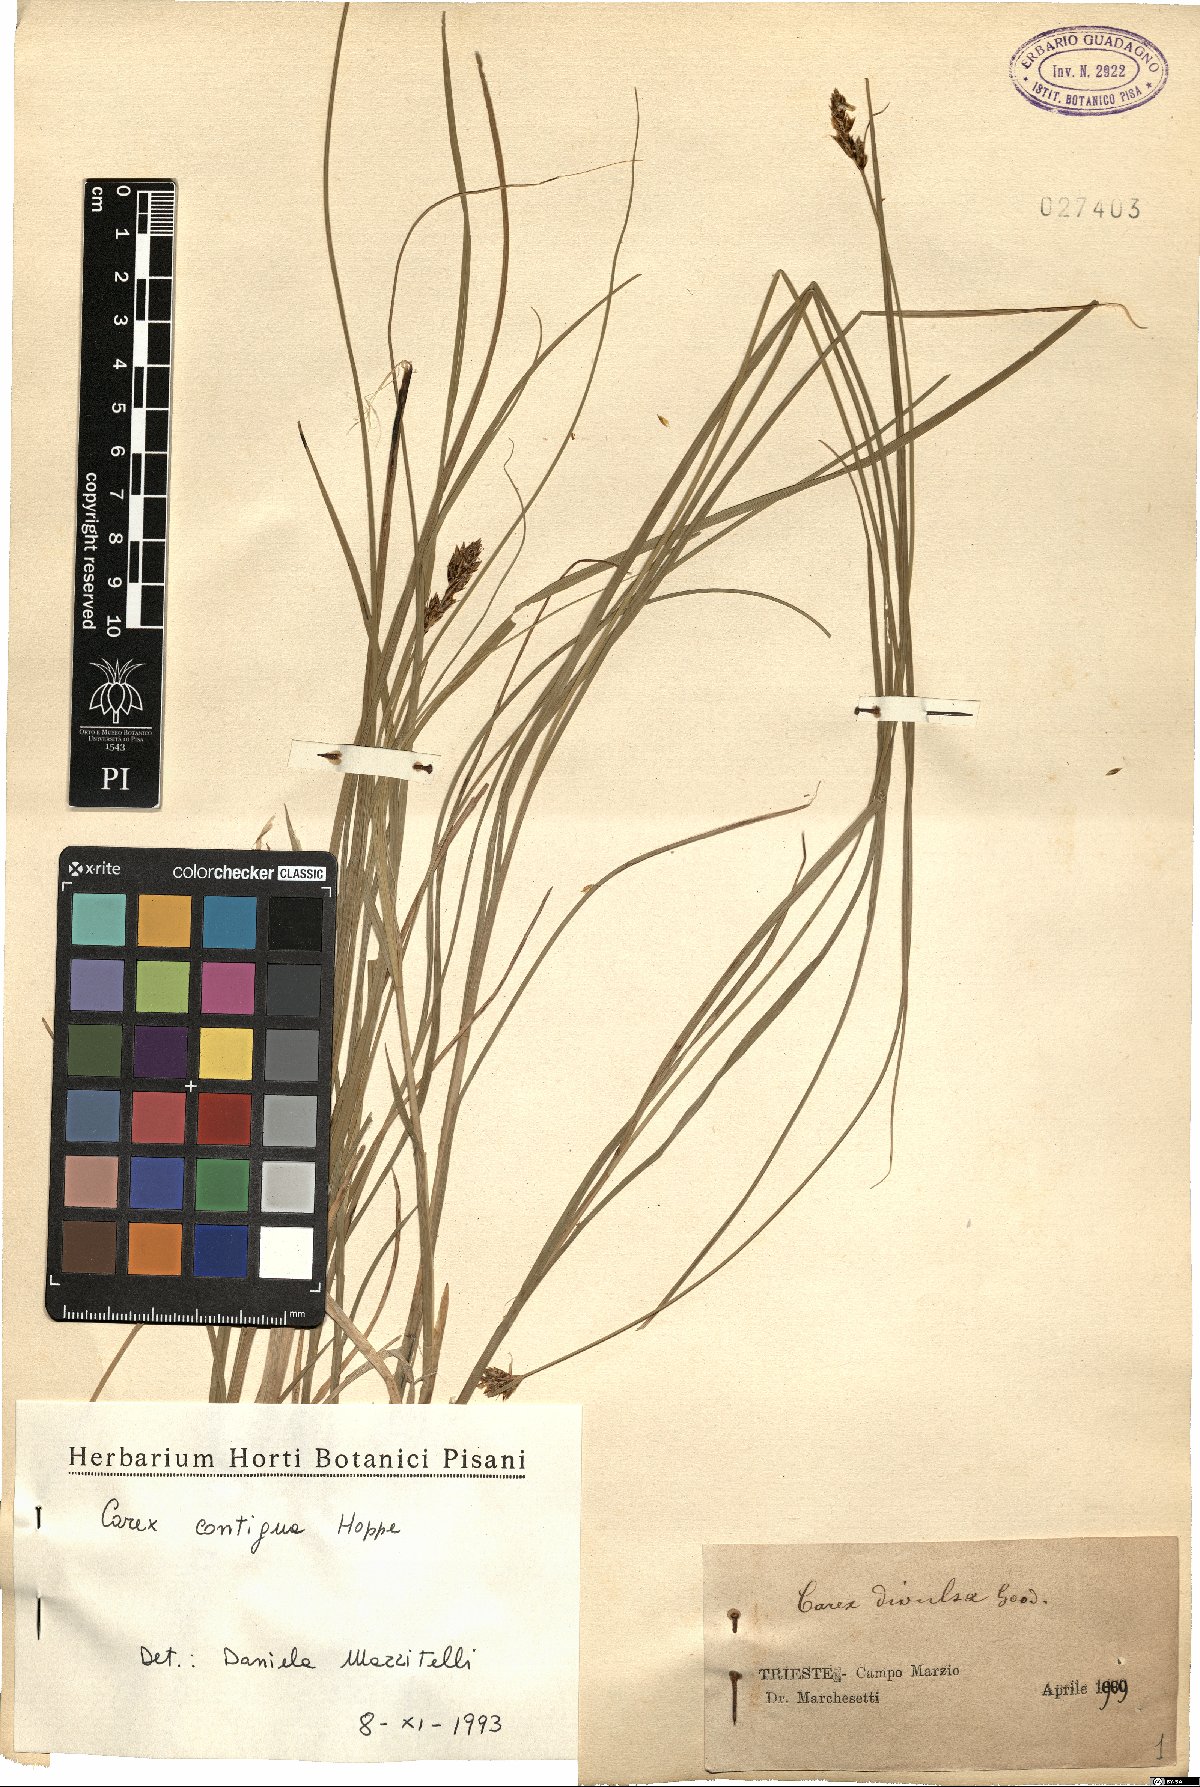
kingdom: Plantae
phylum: Tracheophyta
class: Liliopsida
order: Poales
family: Cyperaceae
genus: Carex
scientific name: Carex spicata
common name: Spiked sedge
